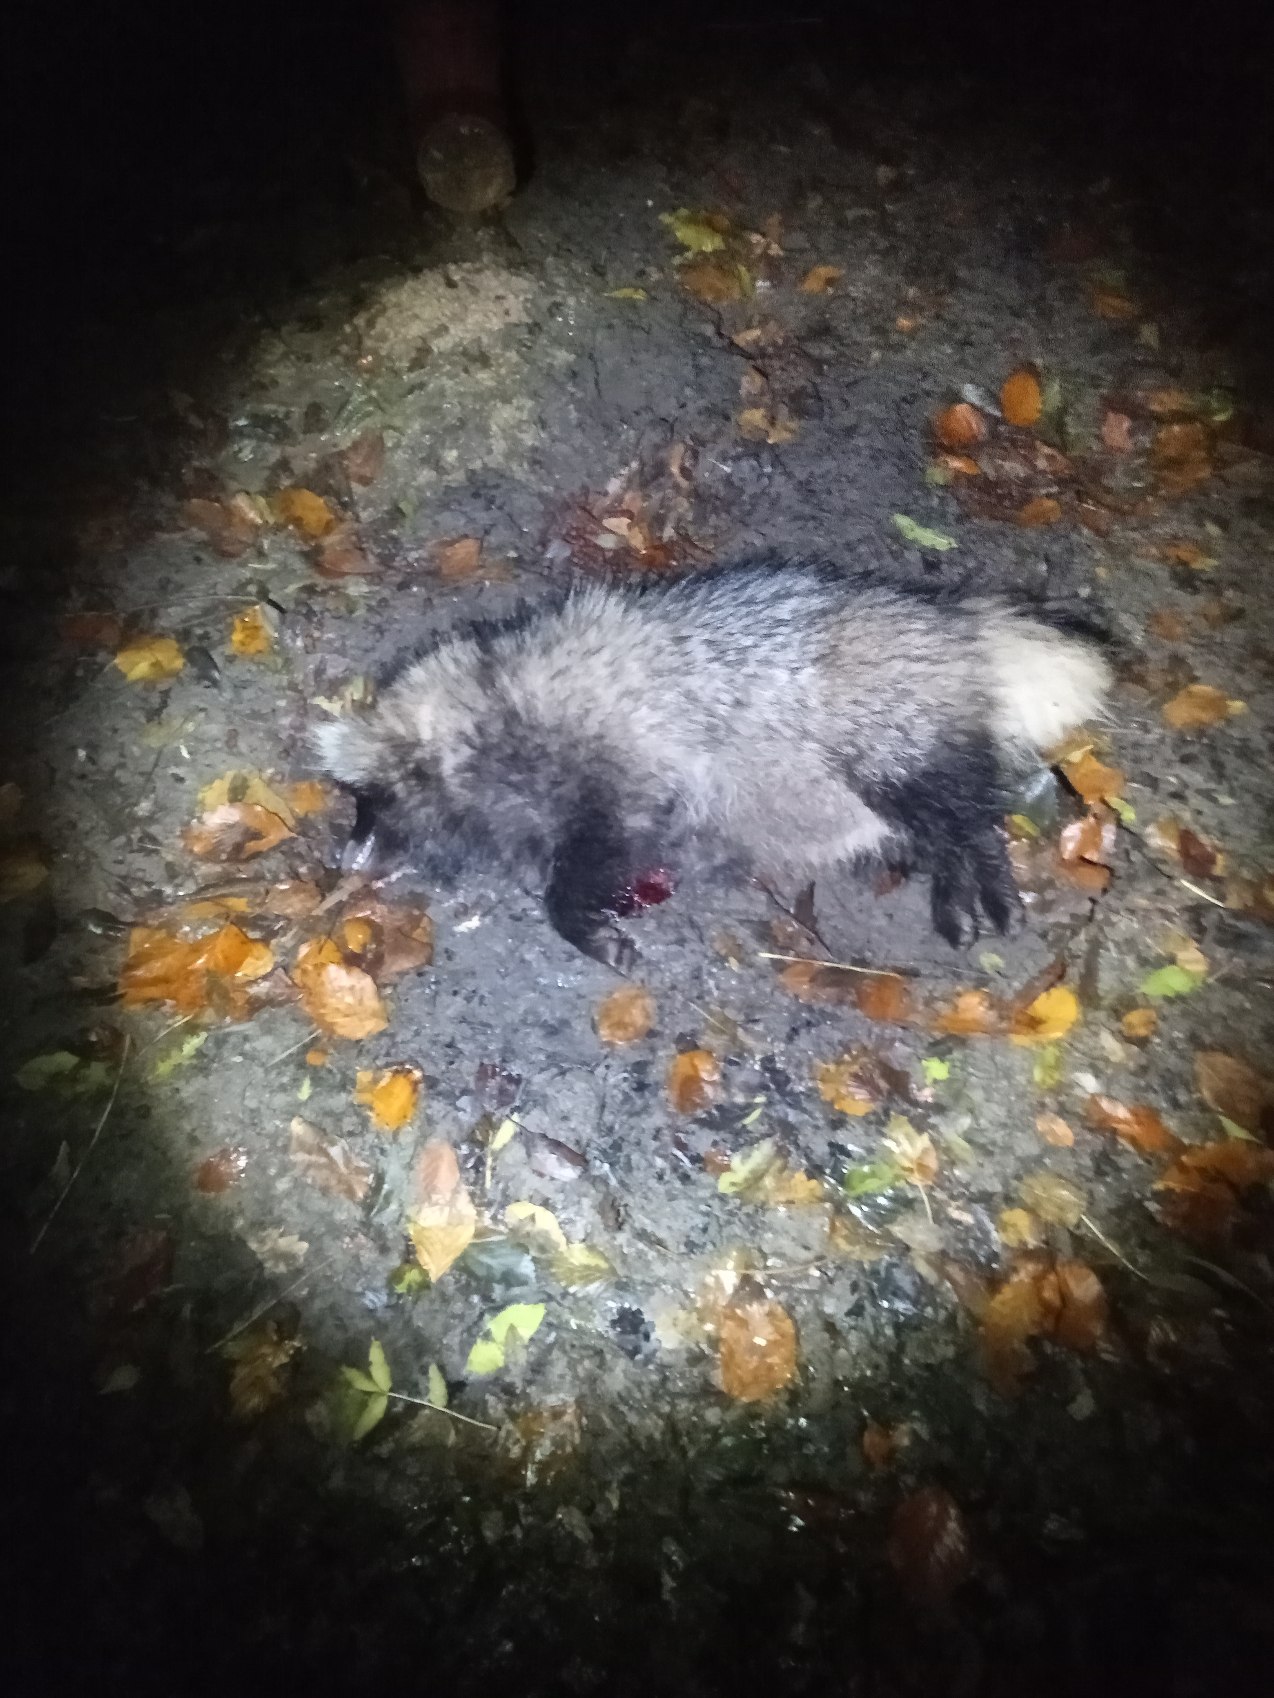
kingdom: Animalia
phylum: Chordata
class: Mammalia
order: Carnivora
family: Canidae
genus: Nyctereutes
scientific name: Nyctereutes procyonoides
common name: Mårhund
